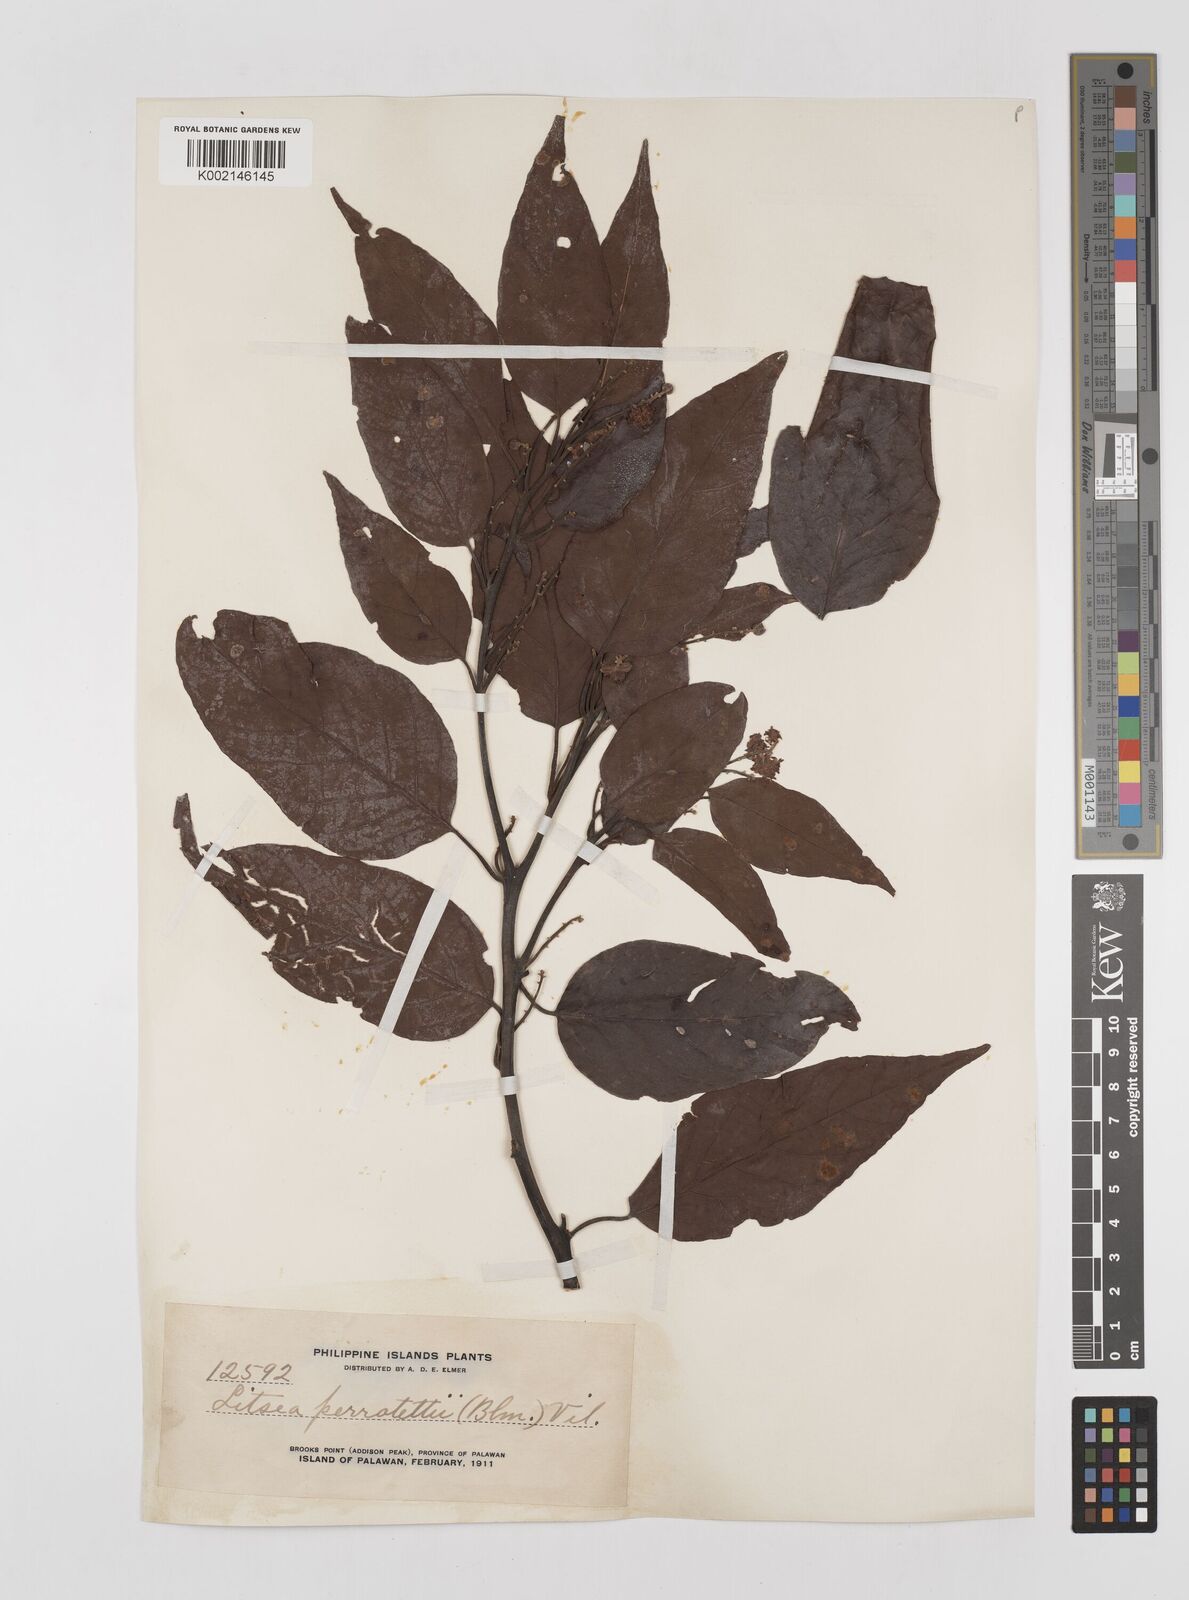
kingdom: Plantae
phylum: Tracheophyta
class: Magnoliopsida
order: Laurales
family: Lauraceae
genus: Litsea
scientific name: Litsea cordata
